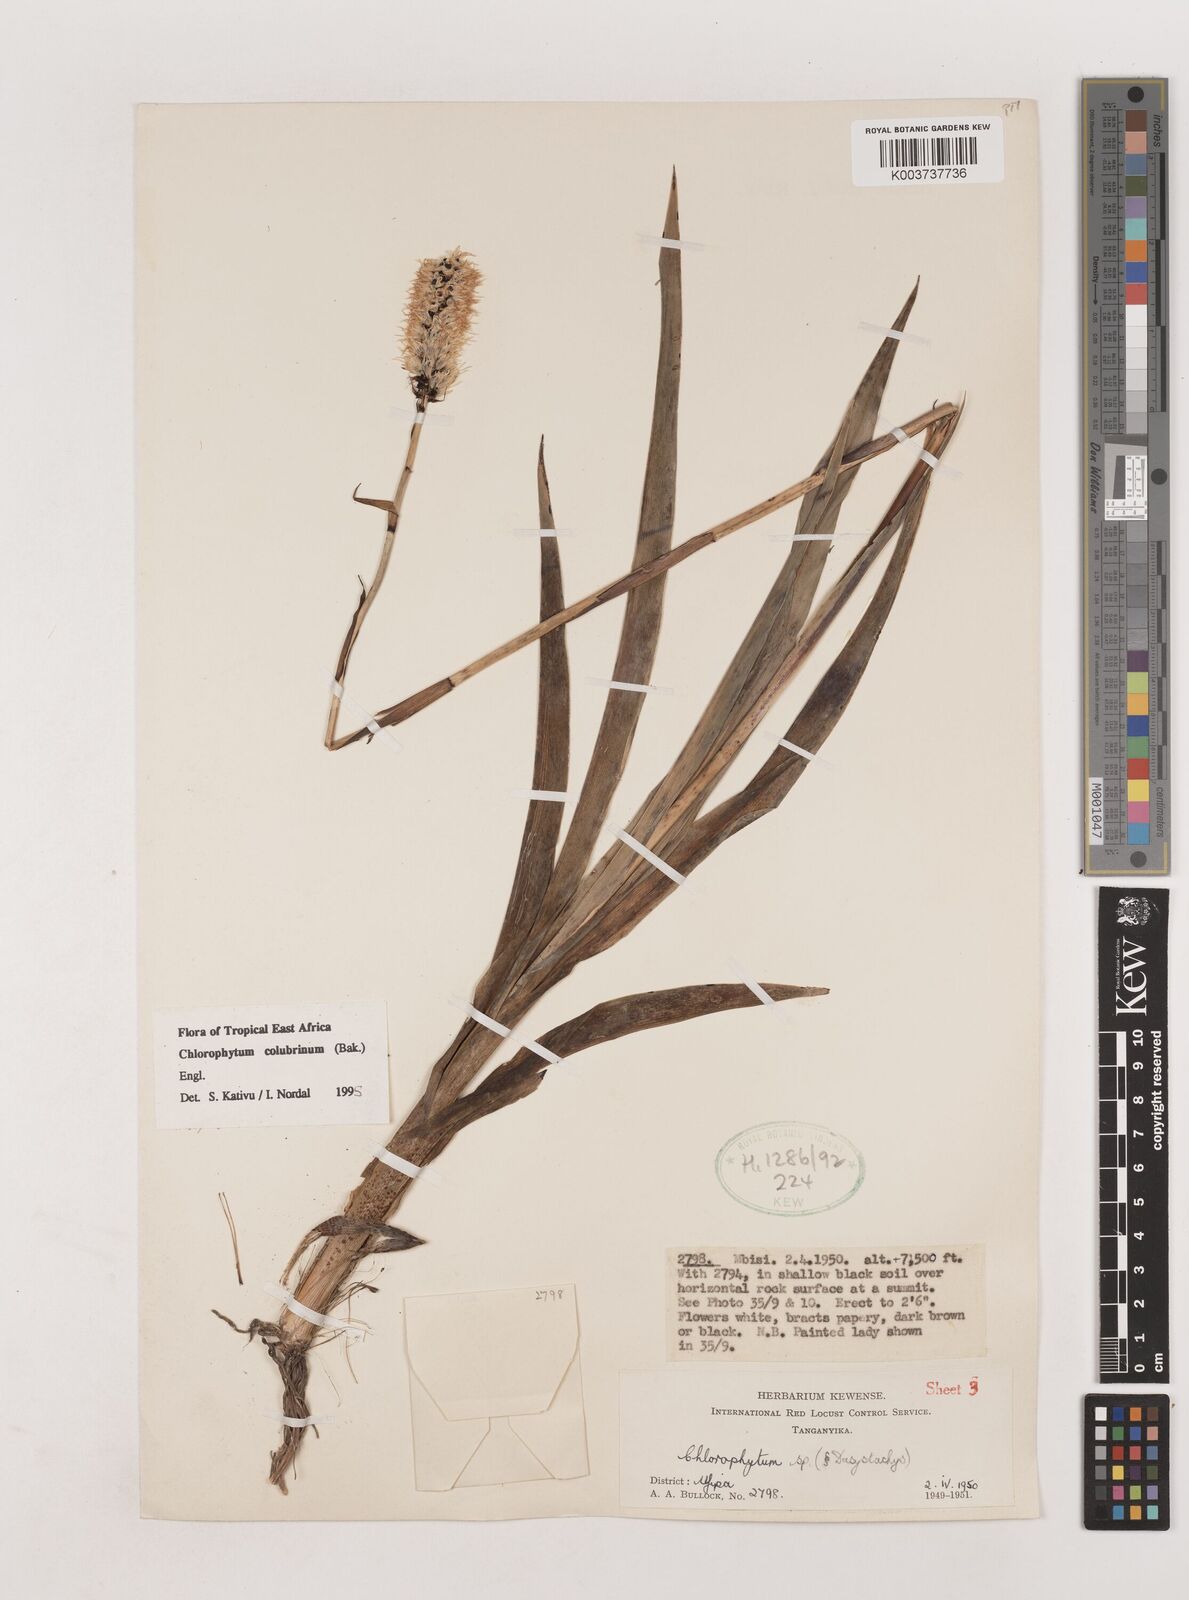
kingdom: Plantae
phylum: Tracheophyta
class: Liliopsida
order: Asparagales
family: Asparagaceae
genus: Chlorophytum
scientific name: Chlorophytum colubrinum
